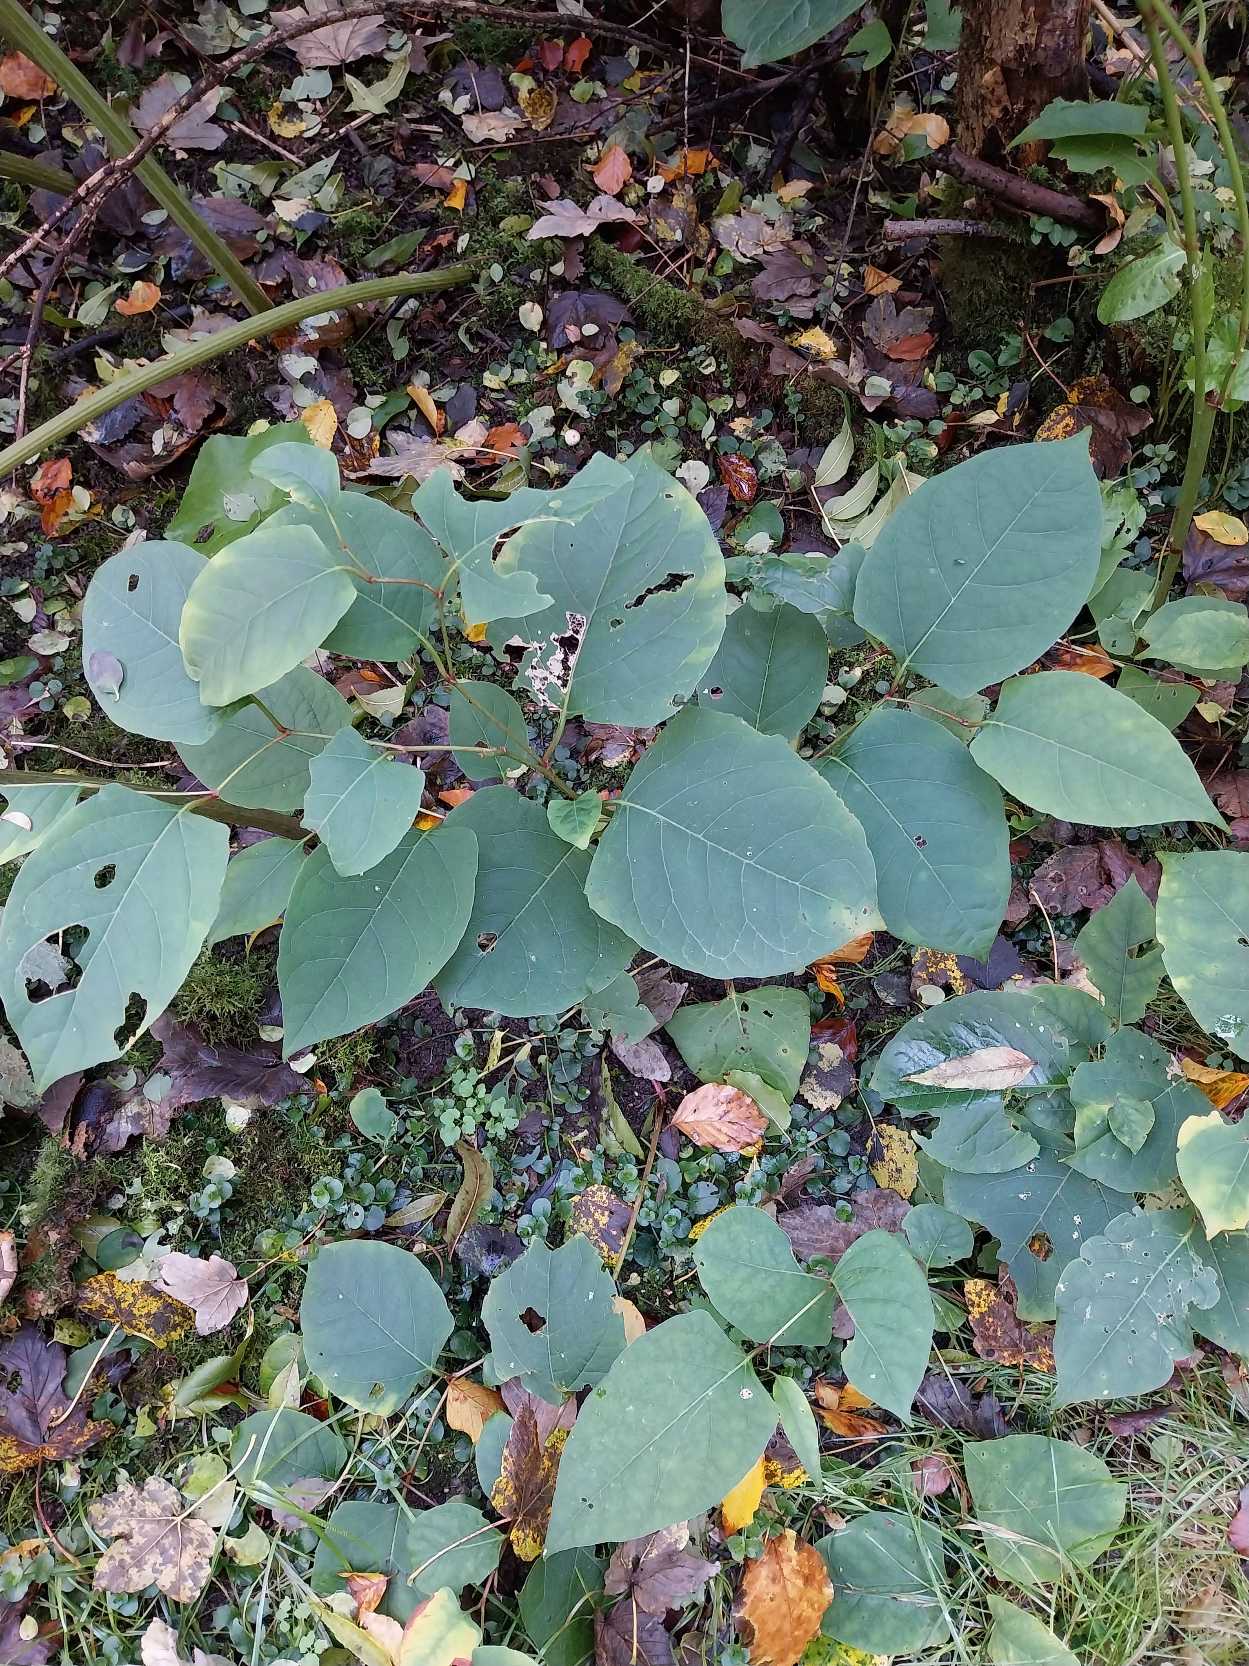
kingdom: Plantae
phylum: Tracheophyta
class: Magnoliopsida
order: Caryophyllales
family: Polygonaceae
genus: Reynoutria
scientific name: Reynoutria japonica
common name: Japan-pileurt
